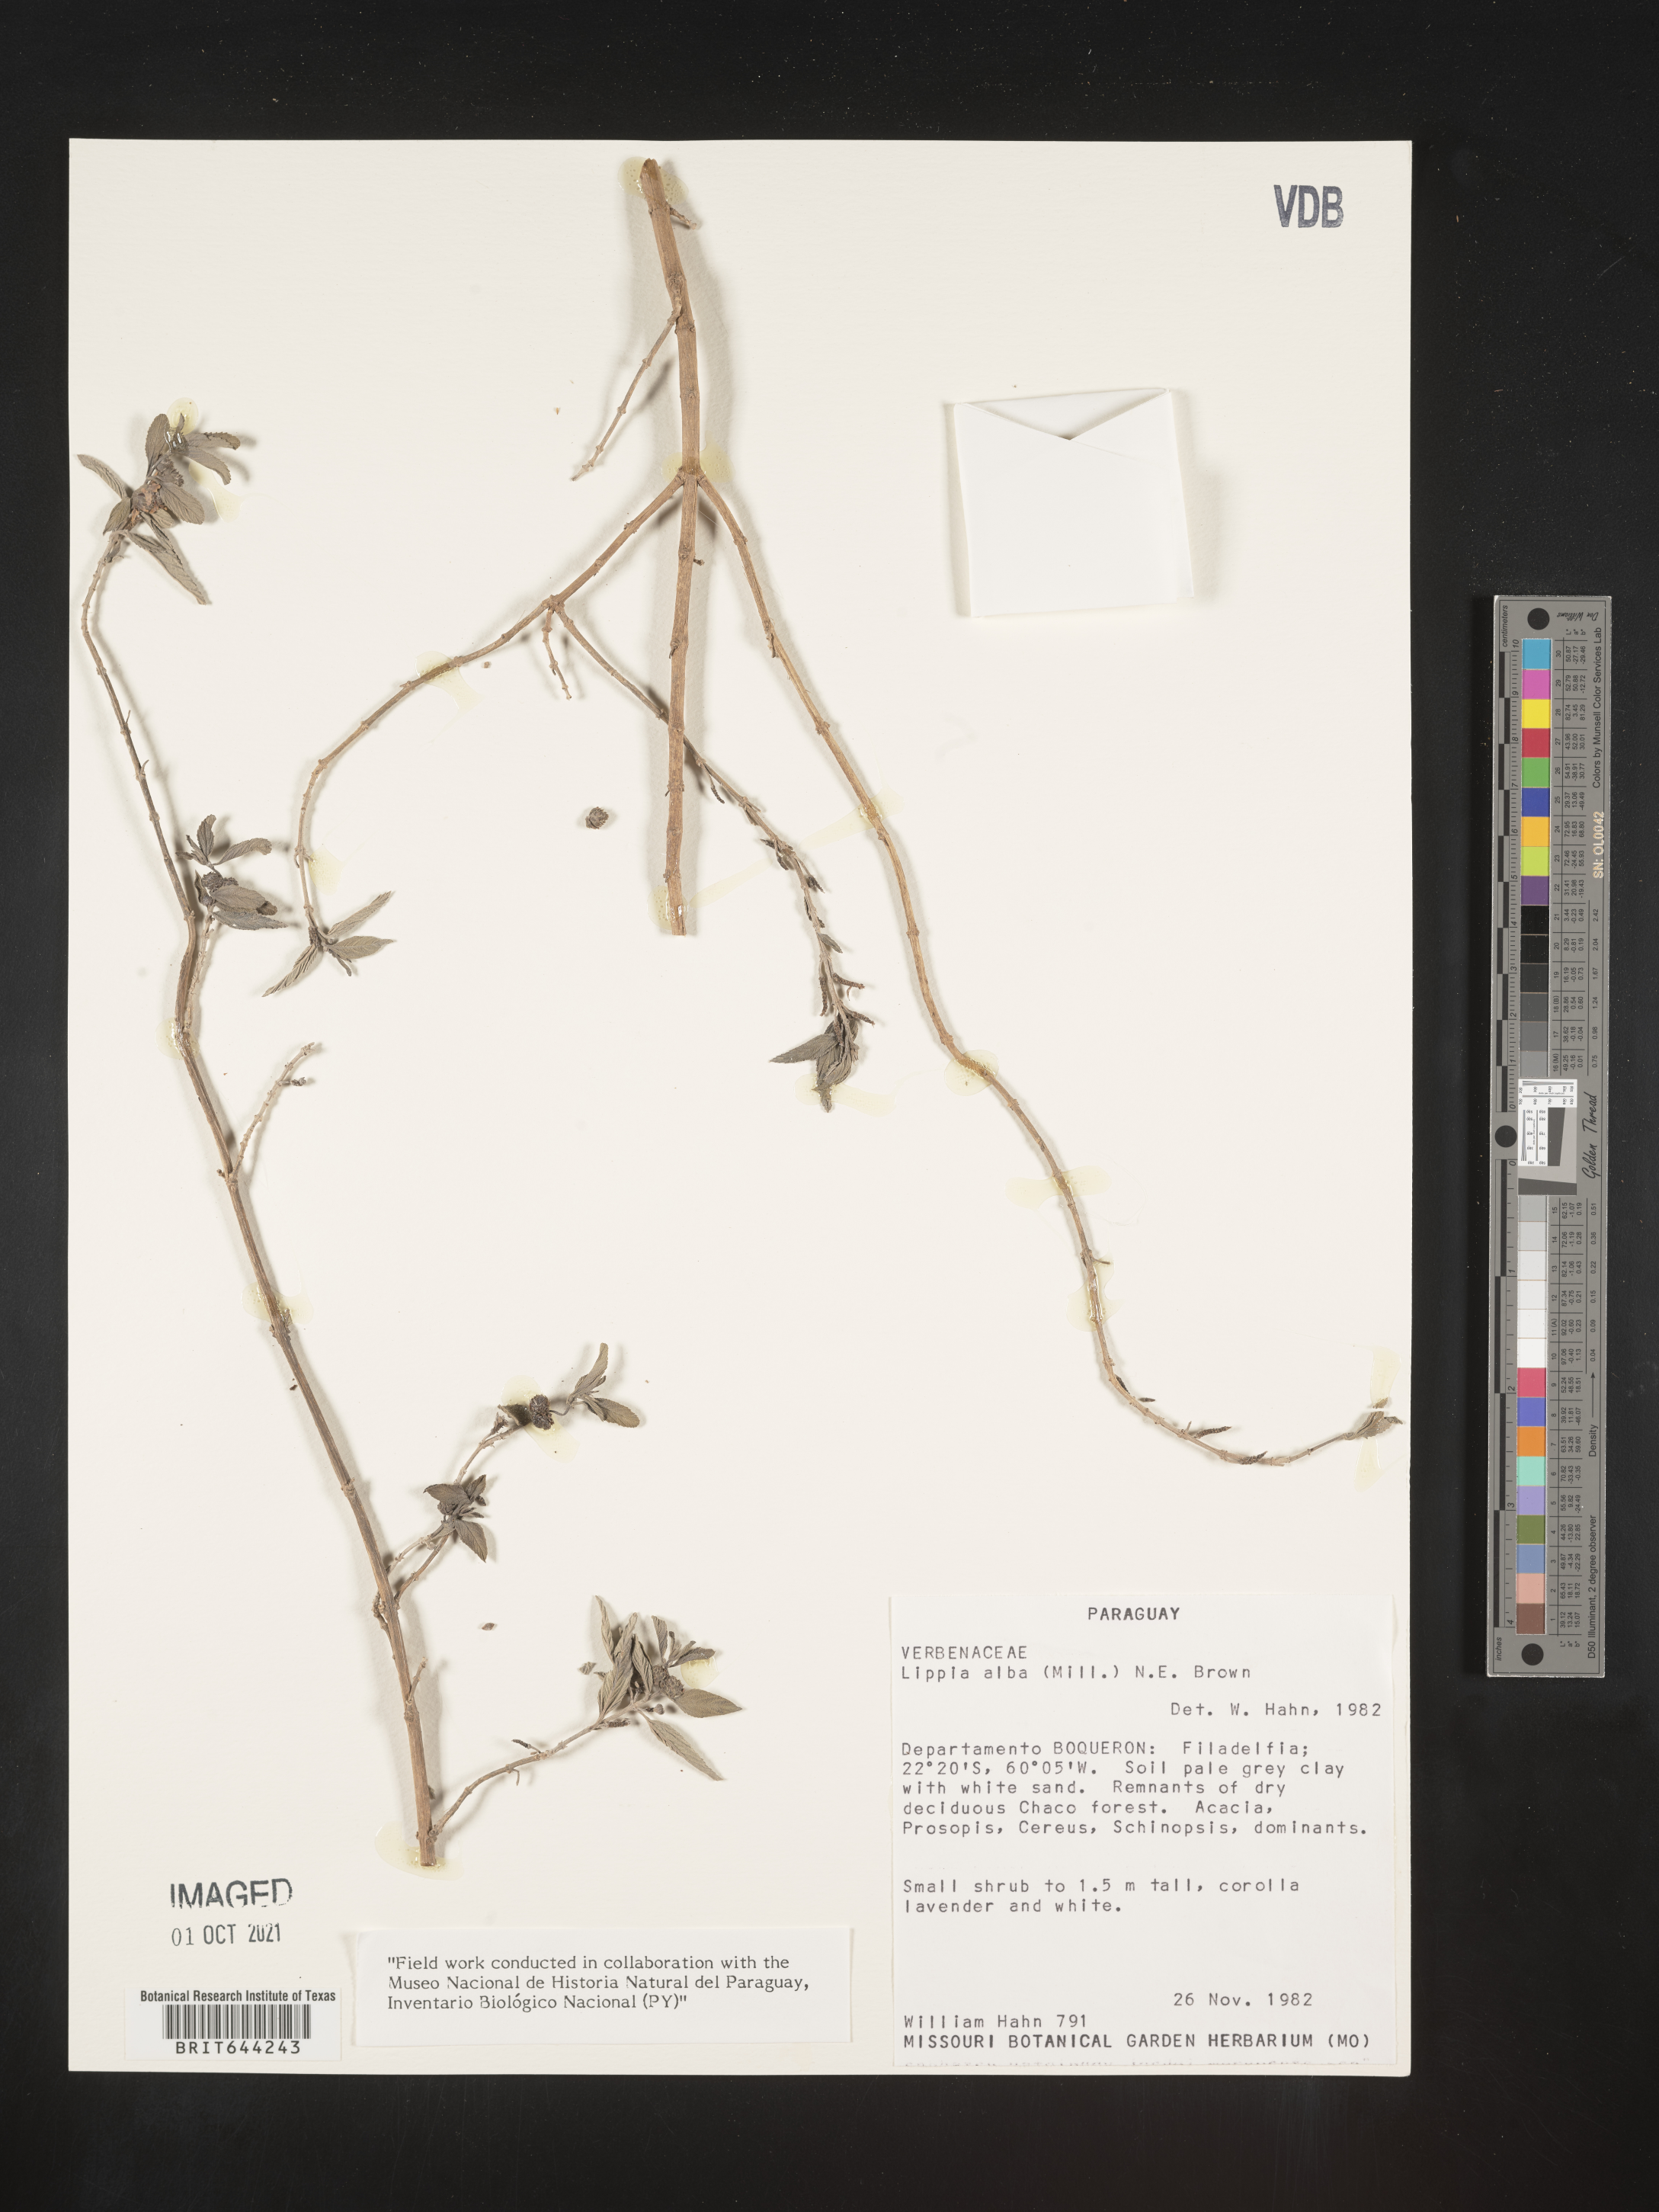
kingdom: Plantae
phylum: Tracheophyta
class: Magnoliopsida
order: Lamiales
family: Verbenaceae
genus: Lippia
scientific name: Lippia
